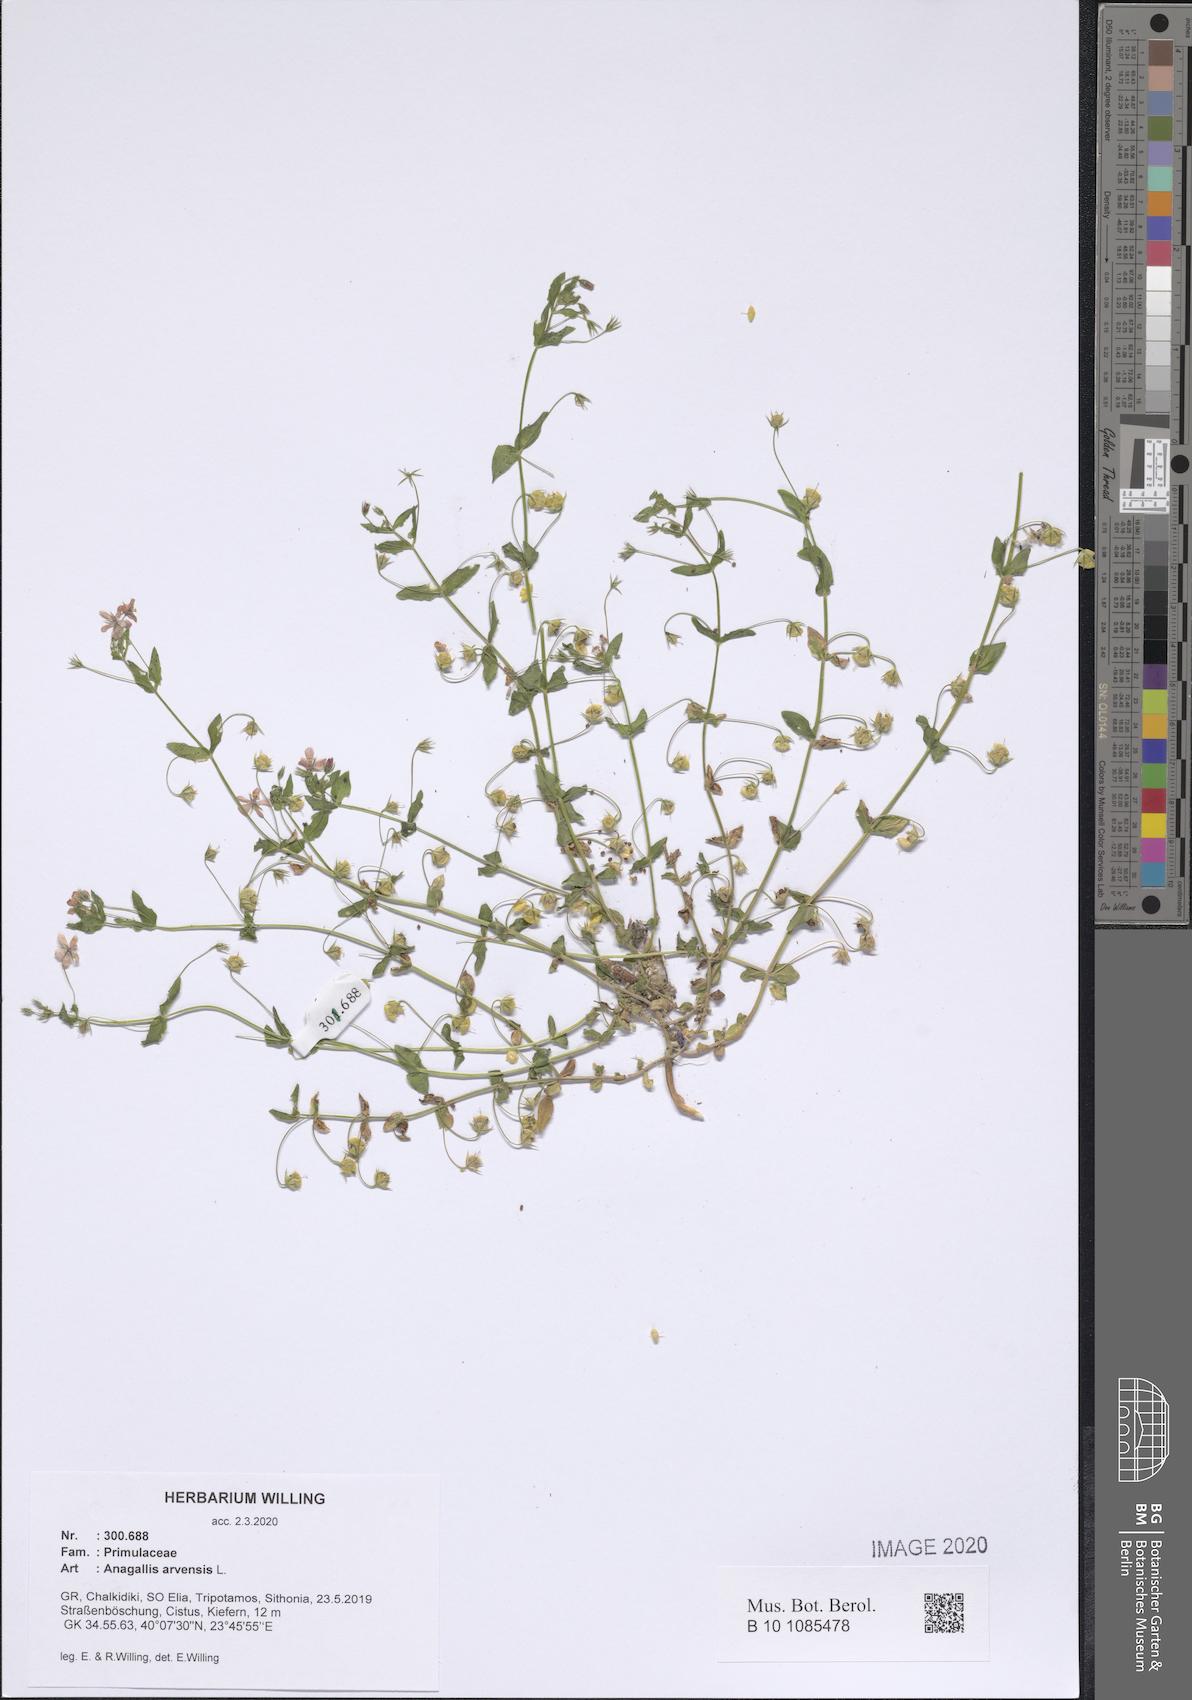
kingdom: Plantae
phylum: Tracheophyta
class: Magnoliopsida
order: Ericales
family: Primulaceae
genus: Lysimachia
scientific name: Lysimachia arvensis
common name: Scarlet pimpernel
